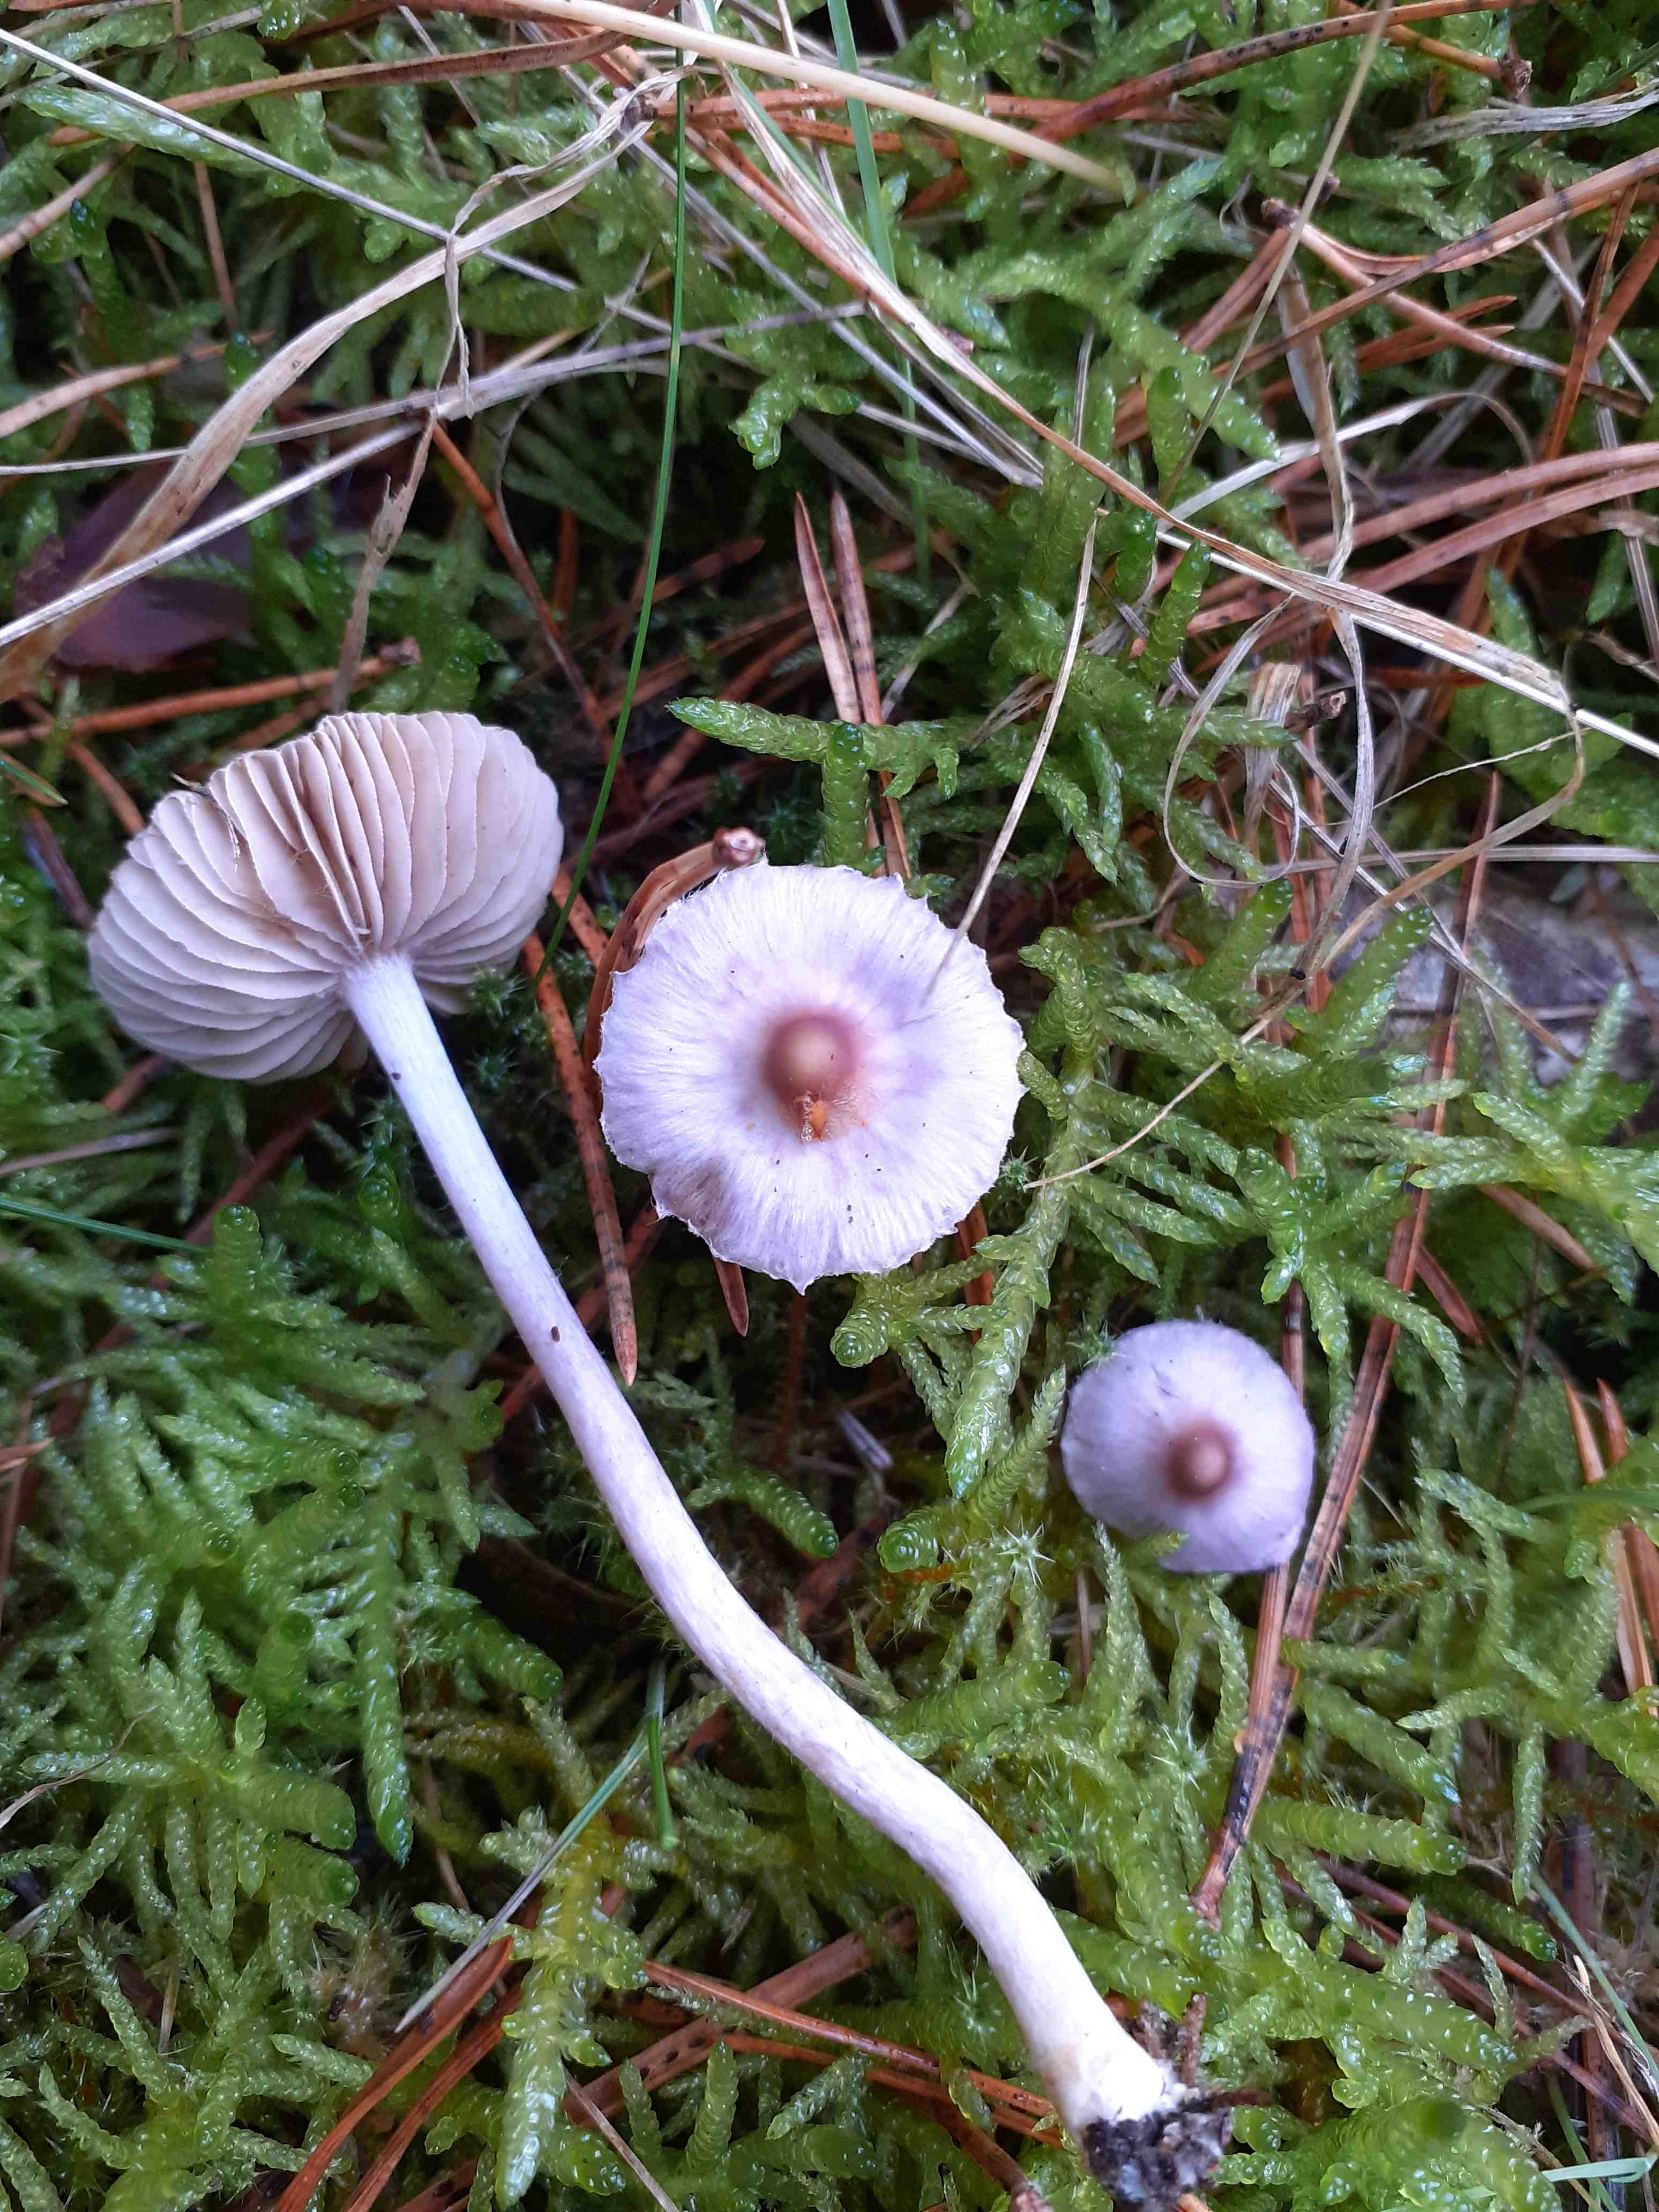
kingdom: Fungi
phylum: Basidiomycota
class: Agaricomycetes
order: Agaricales
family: Inocybaceae
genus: Inocybe
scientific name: Inocybe geophylla
